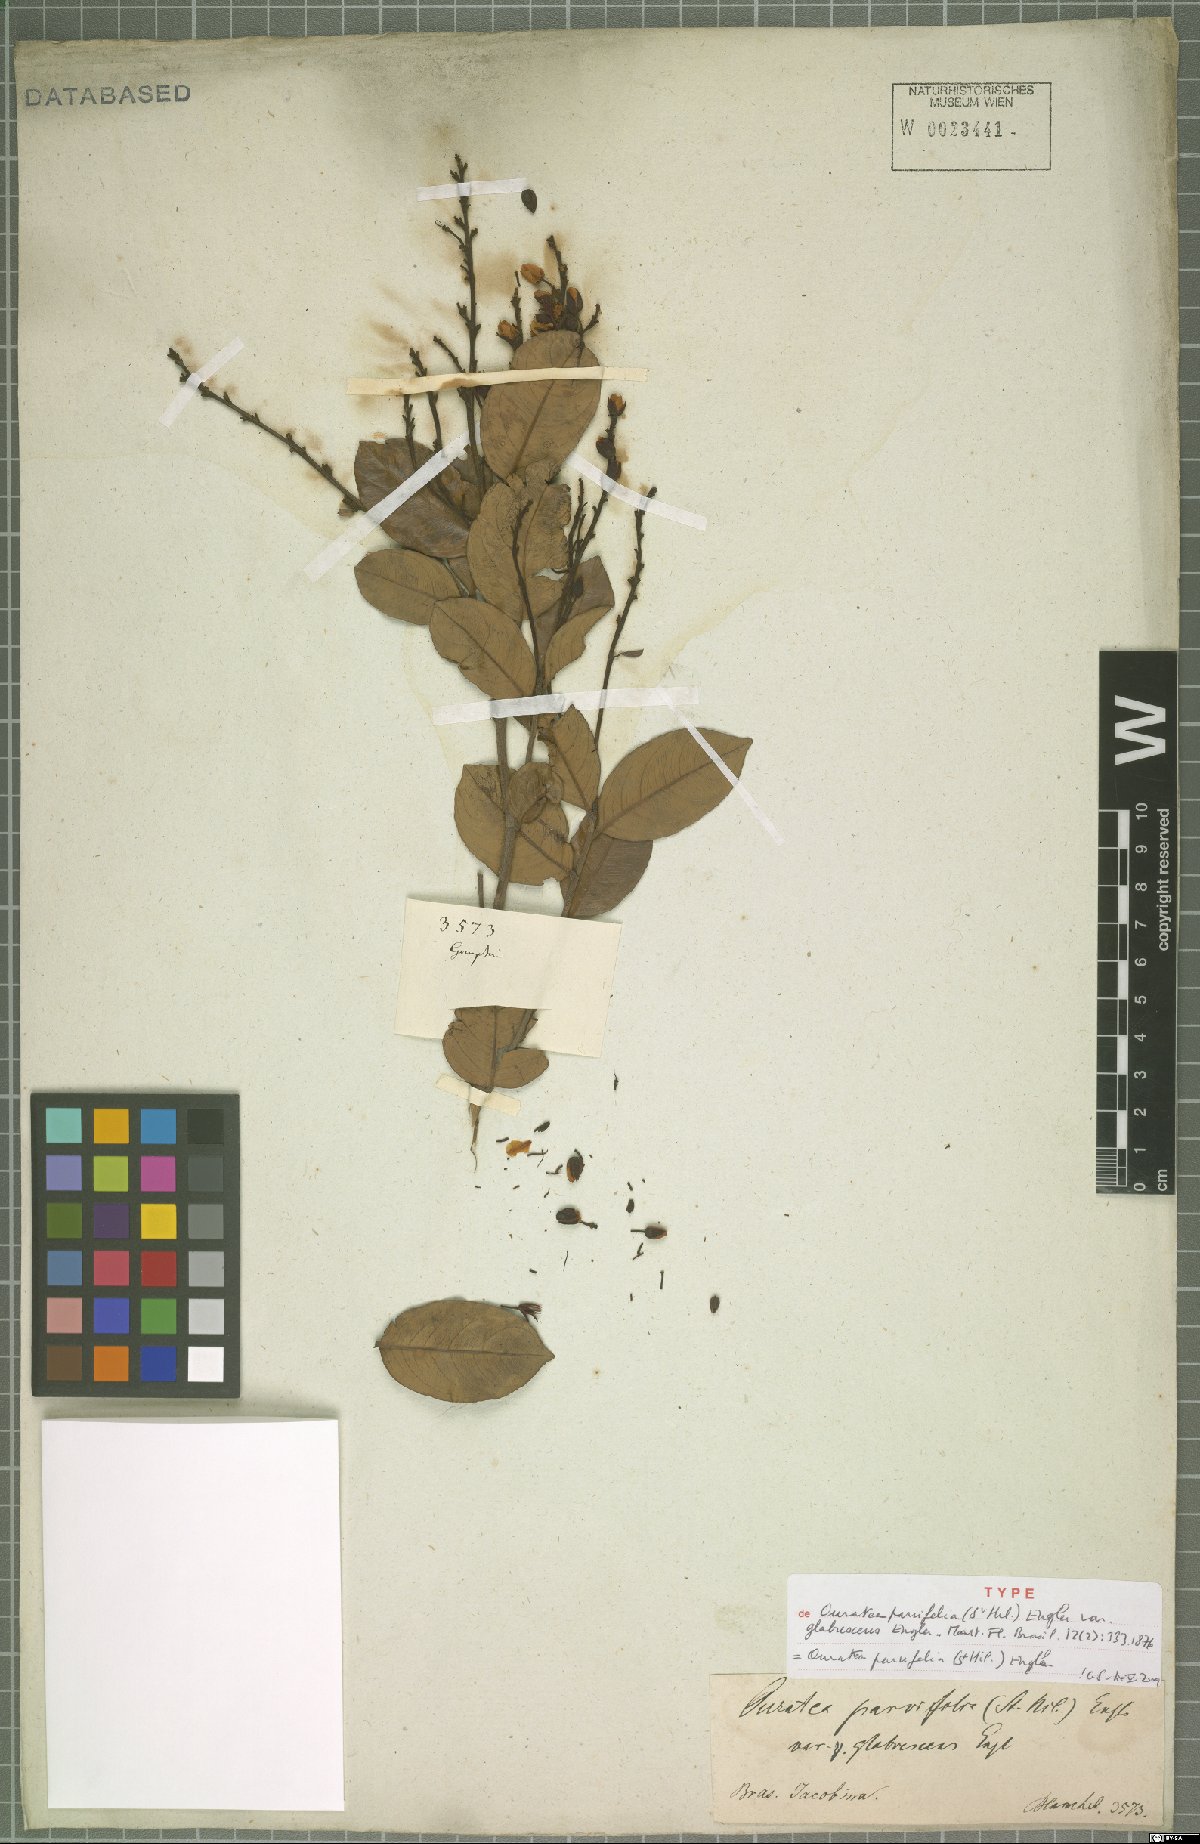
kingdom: Plantae
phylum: Tracheophyta
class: Magnoliopsida
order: Malpighiales
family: Ochnaceae
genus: Ouratea
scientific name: Ouratea parvifolia
